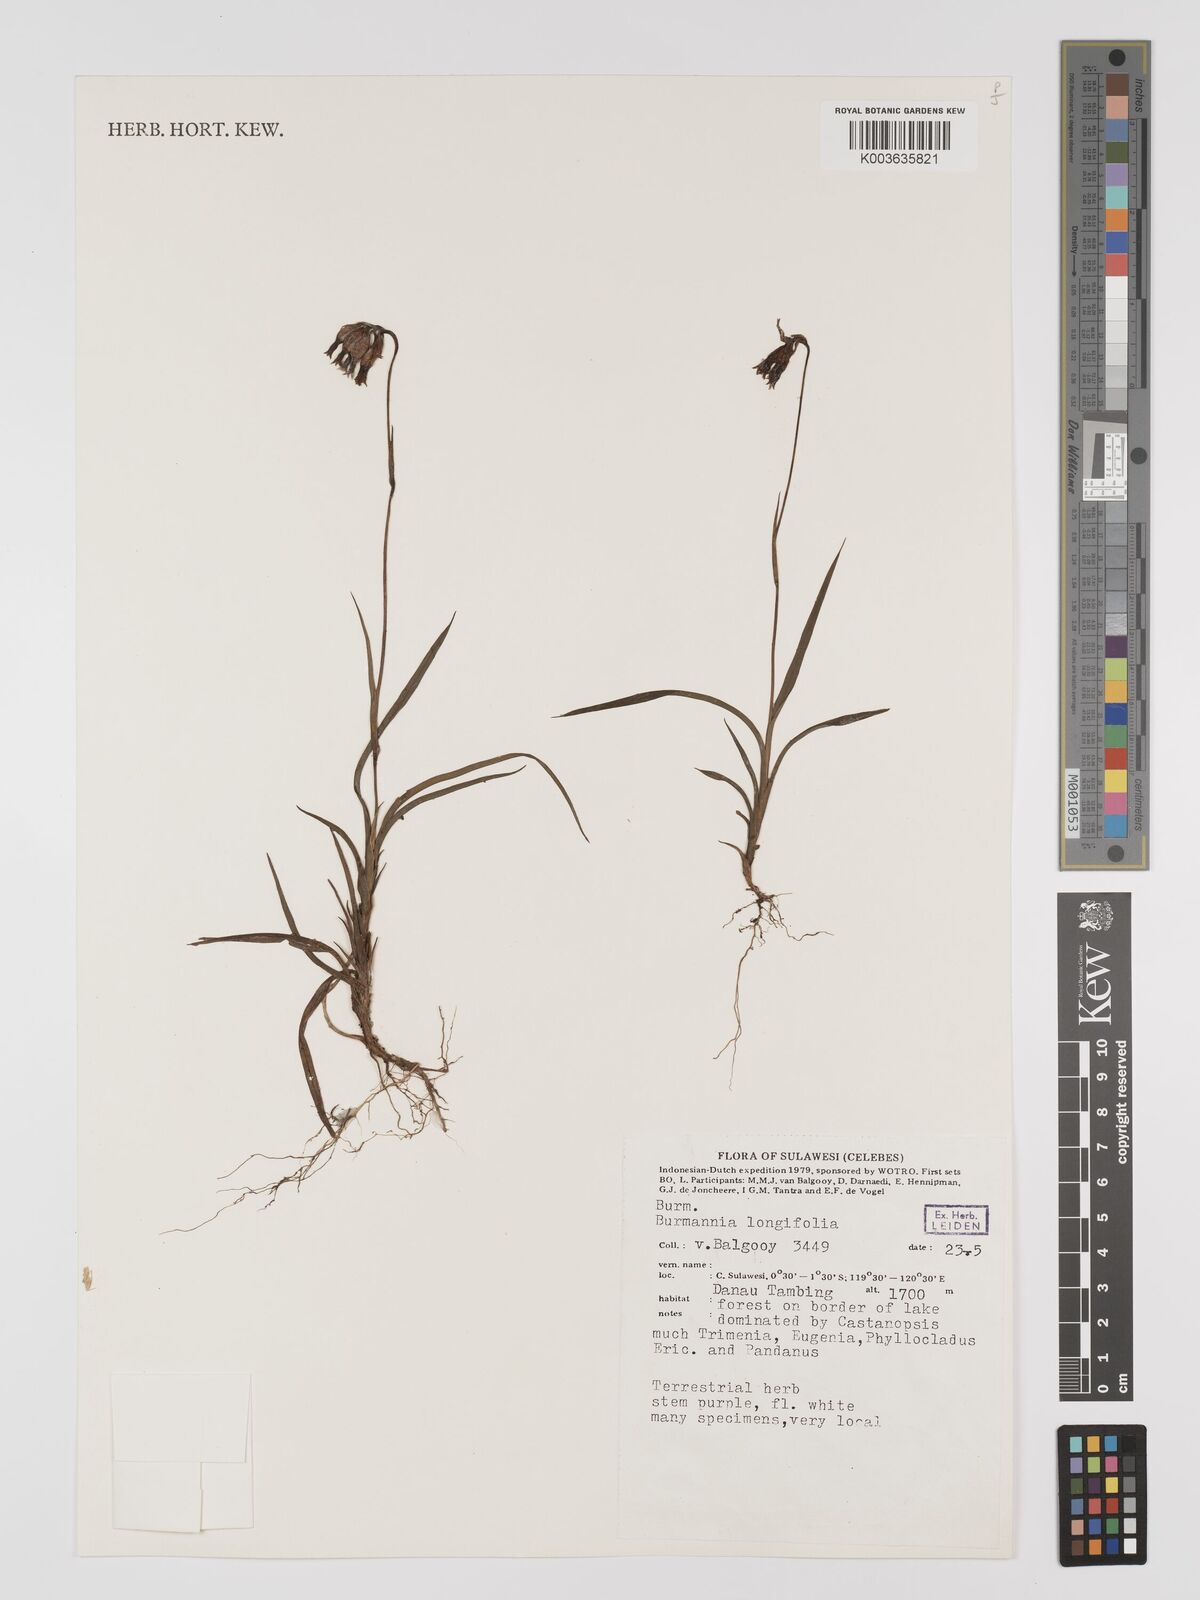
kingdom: Plantae
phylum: Tracheophyta
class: Liliopsida
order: Dioscoreales
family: Burmanniaceae
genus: Burmannia
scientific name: Burmannia longifolia
